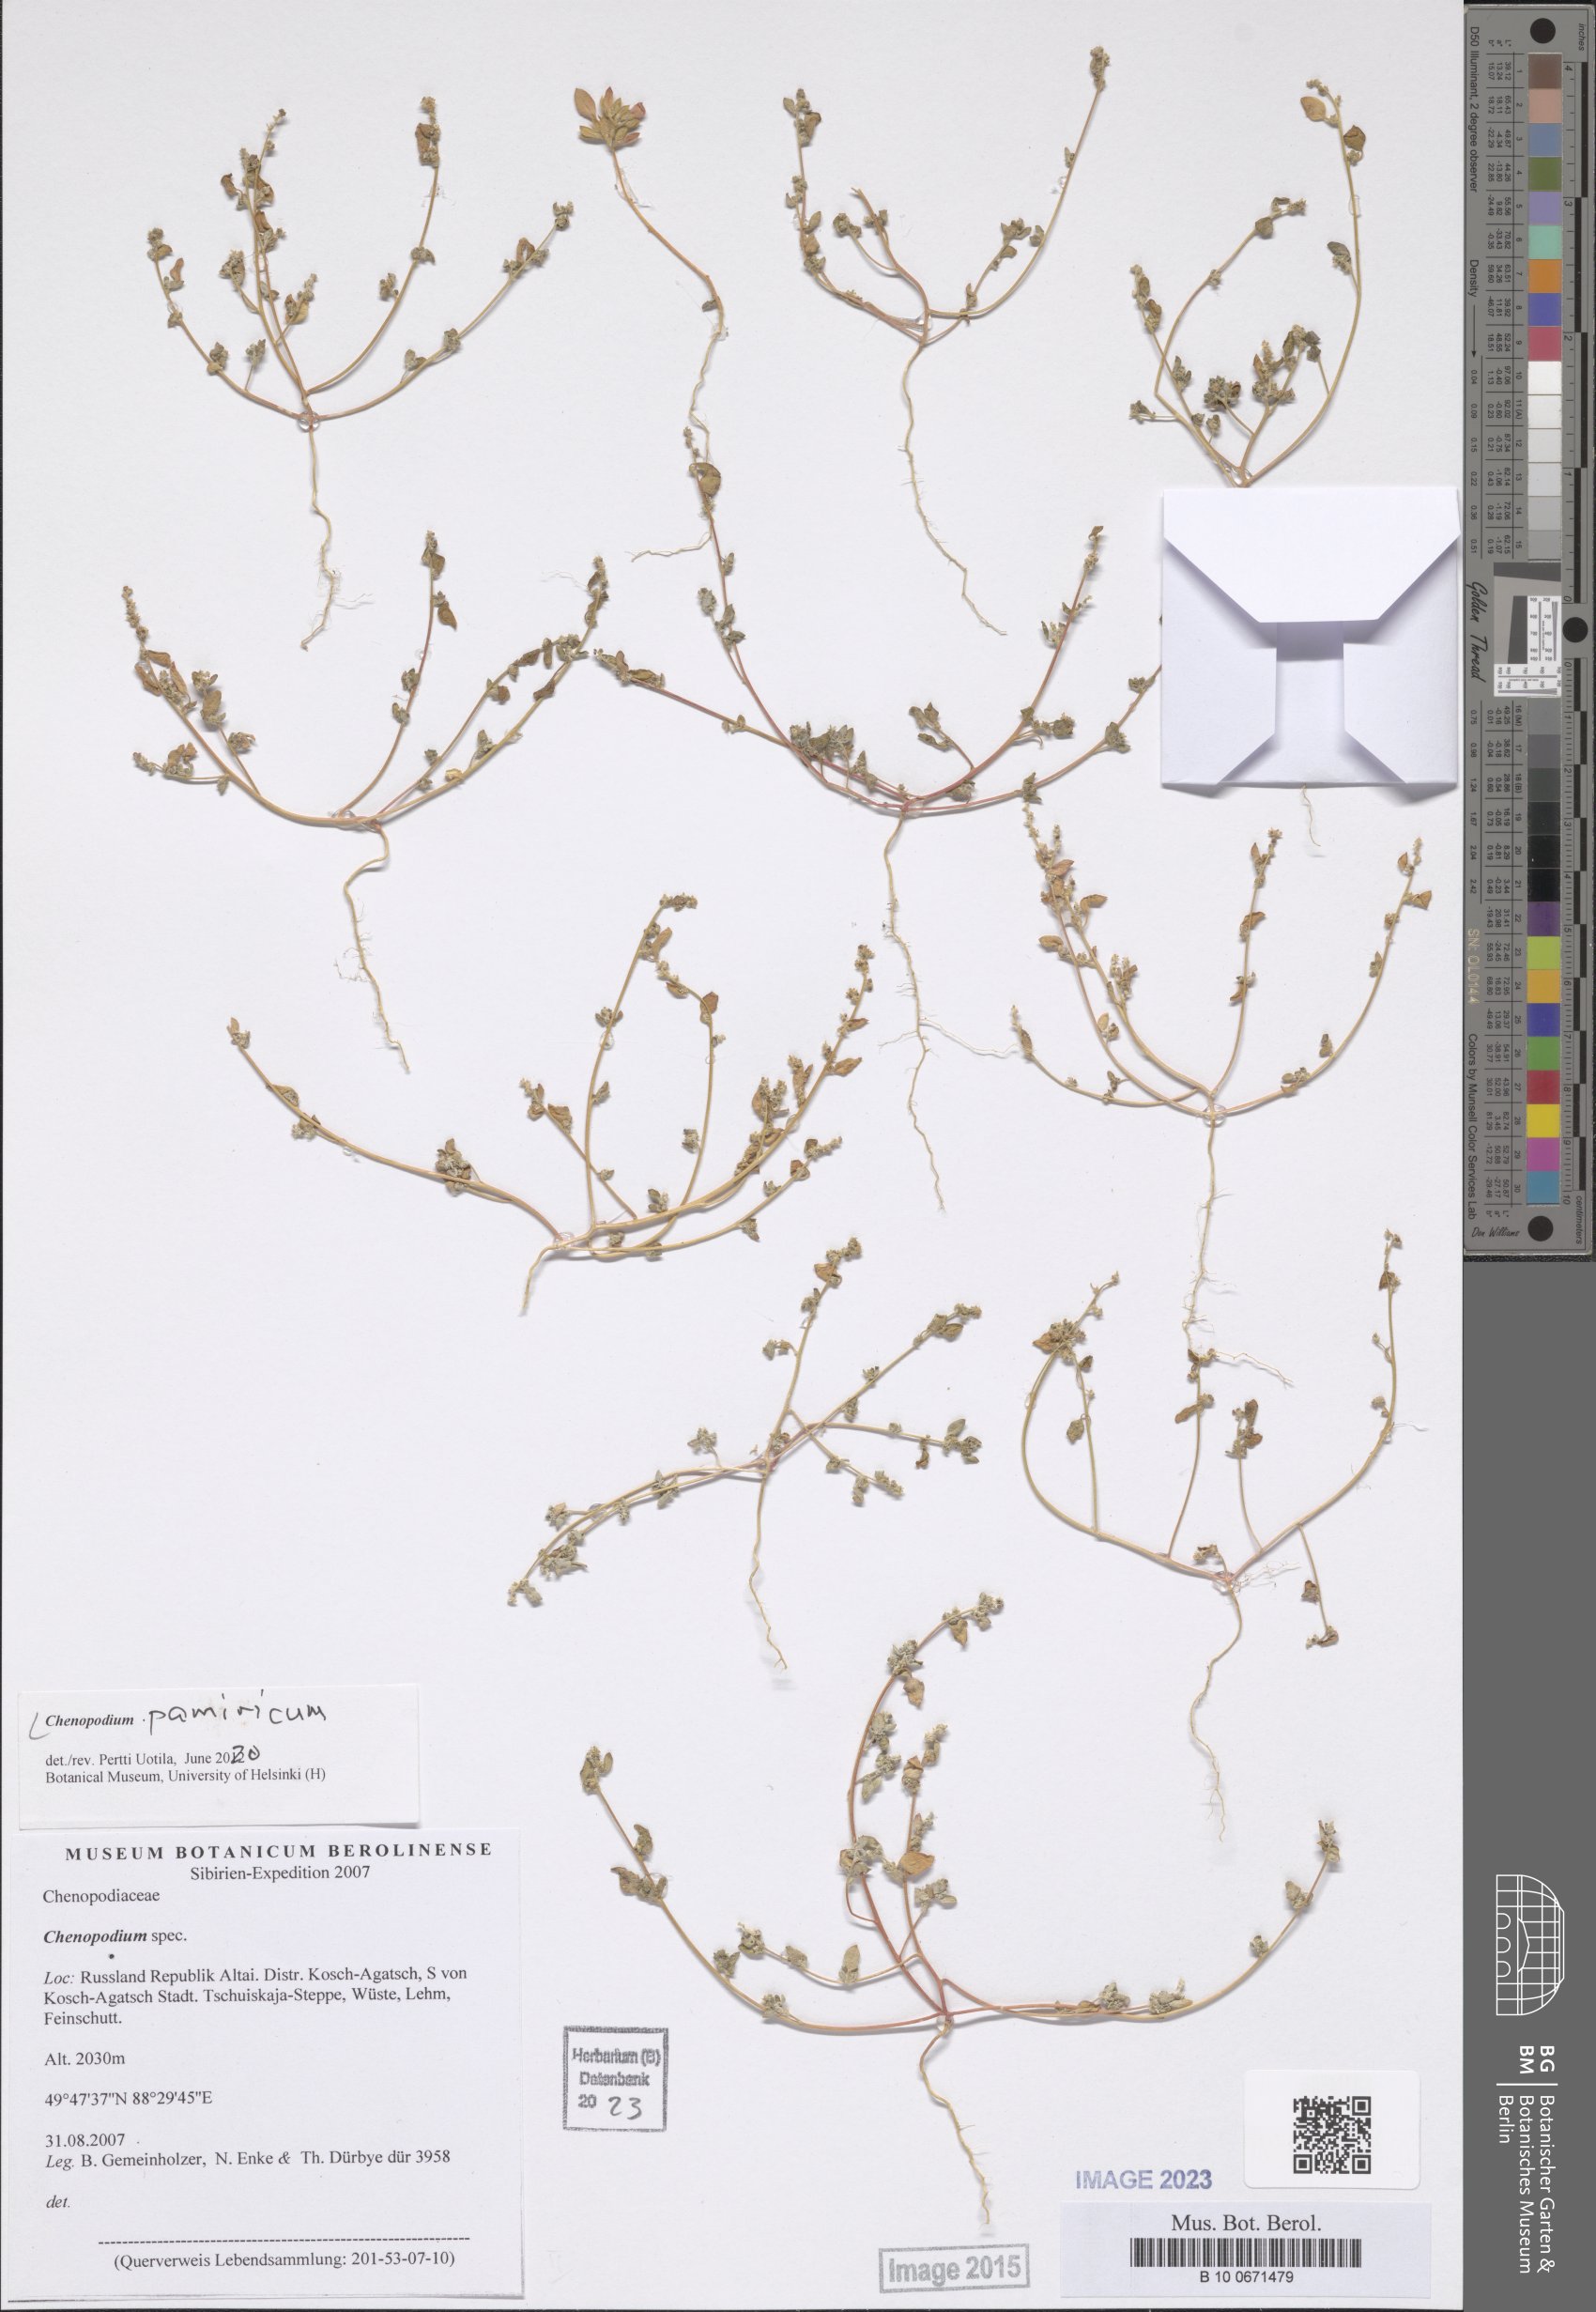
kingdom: Plantae
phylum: Tracheophyta
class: Magnoliopsida
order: Caryophyllales
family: Amaranthaceae
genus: Chenopodium
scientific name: Chenopodium pamiricum
